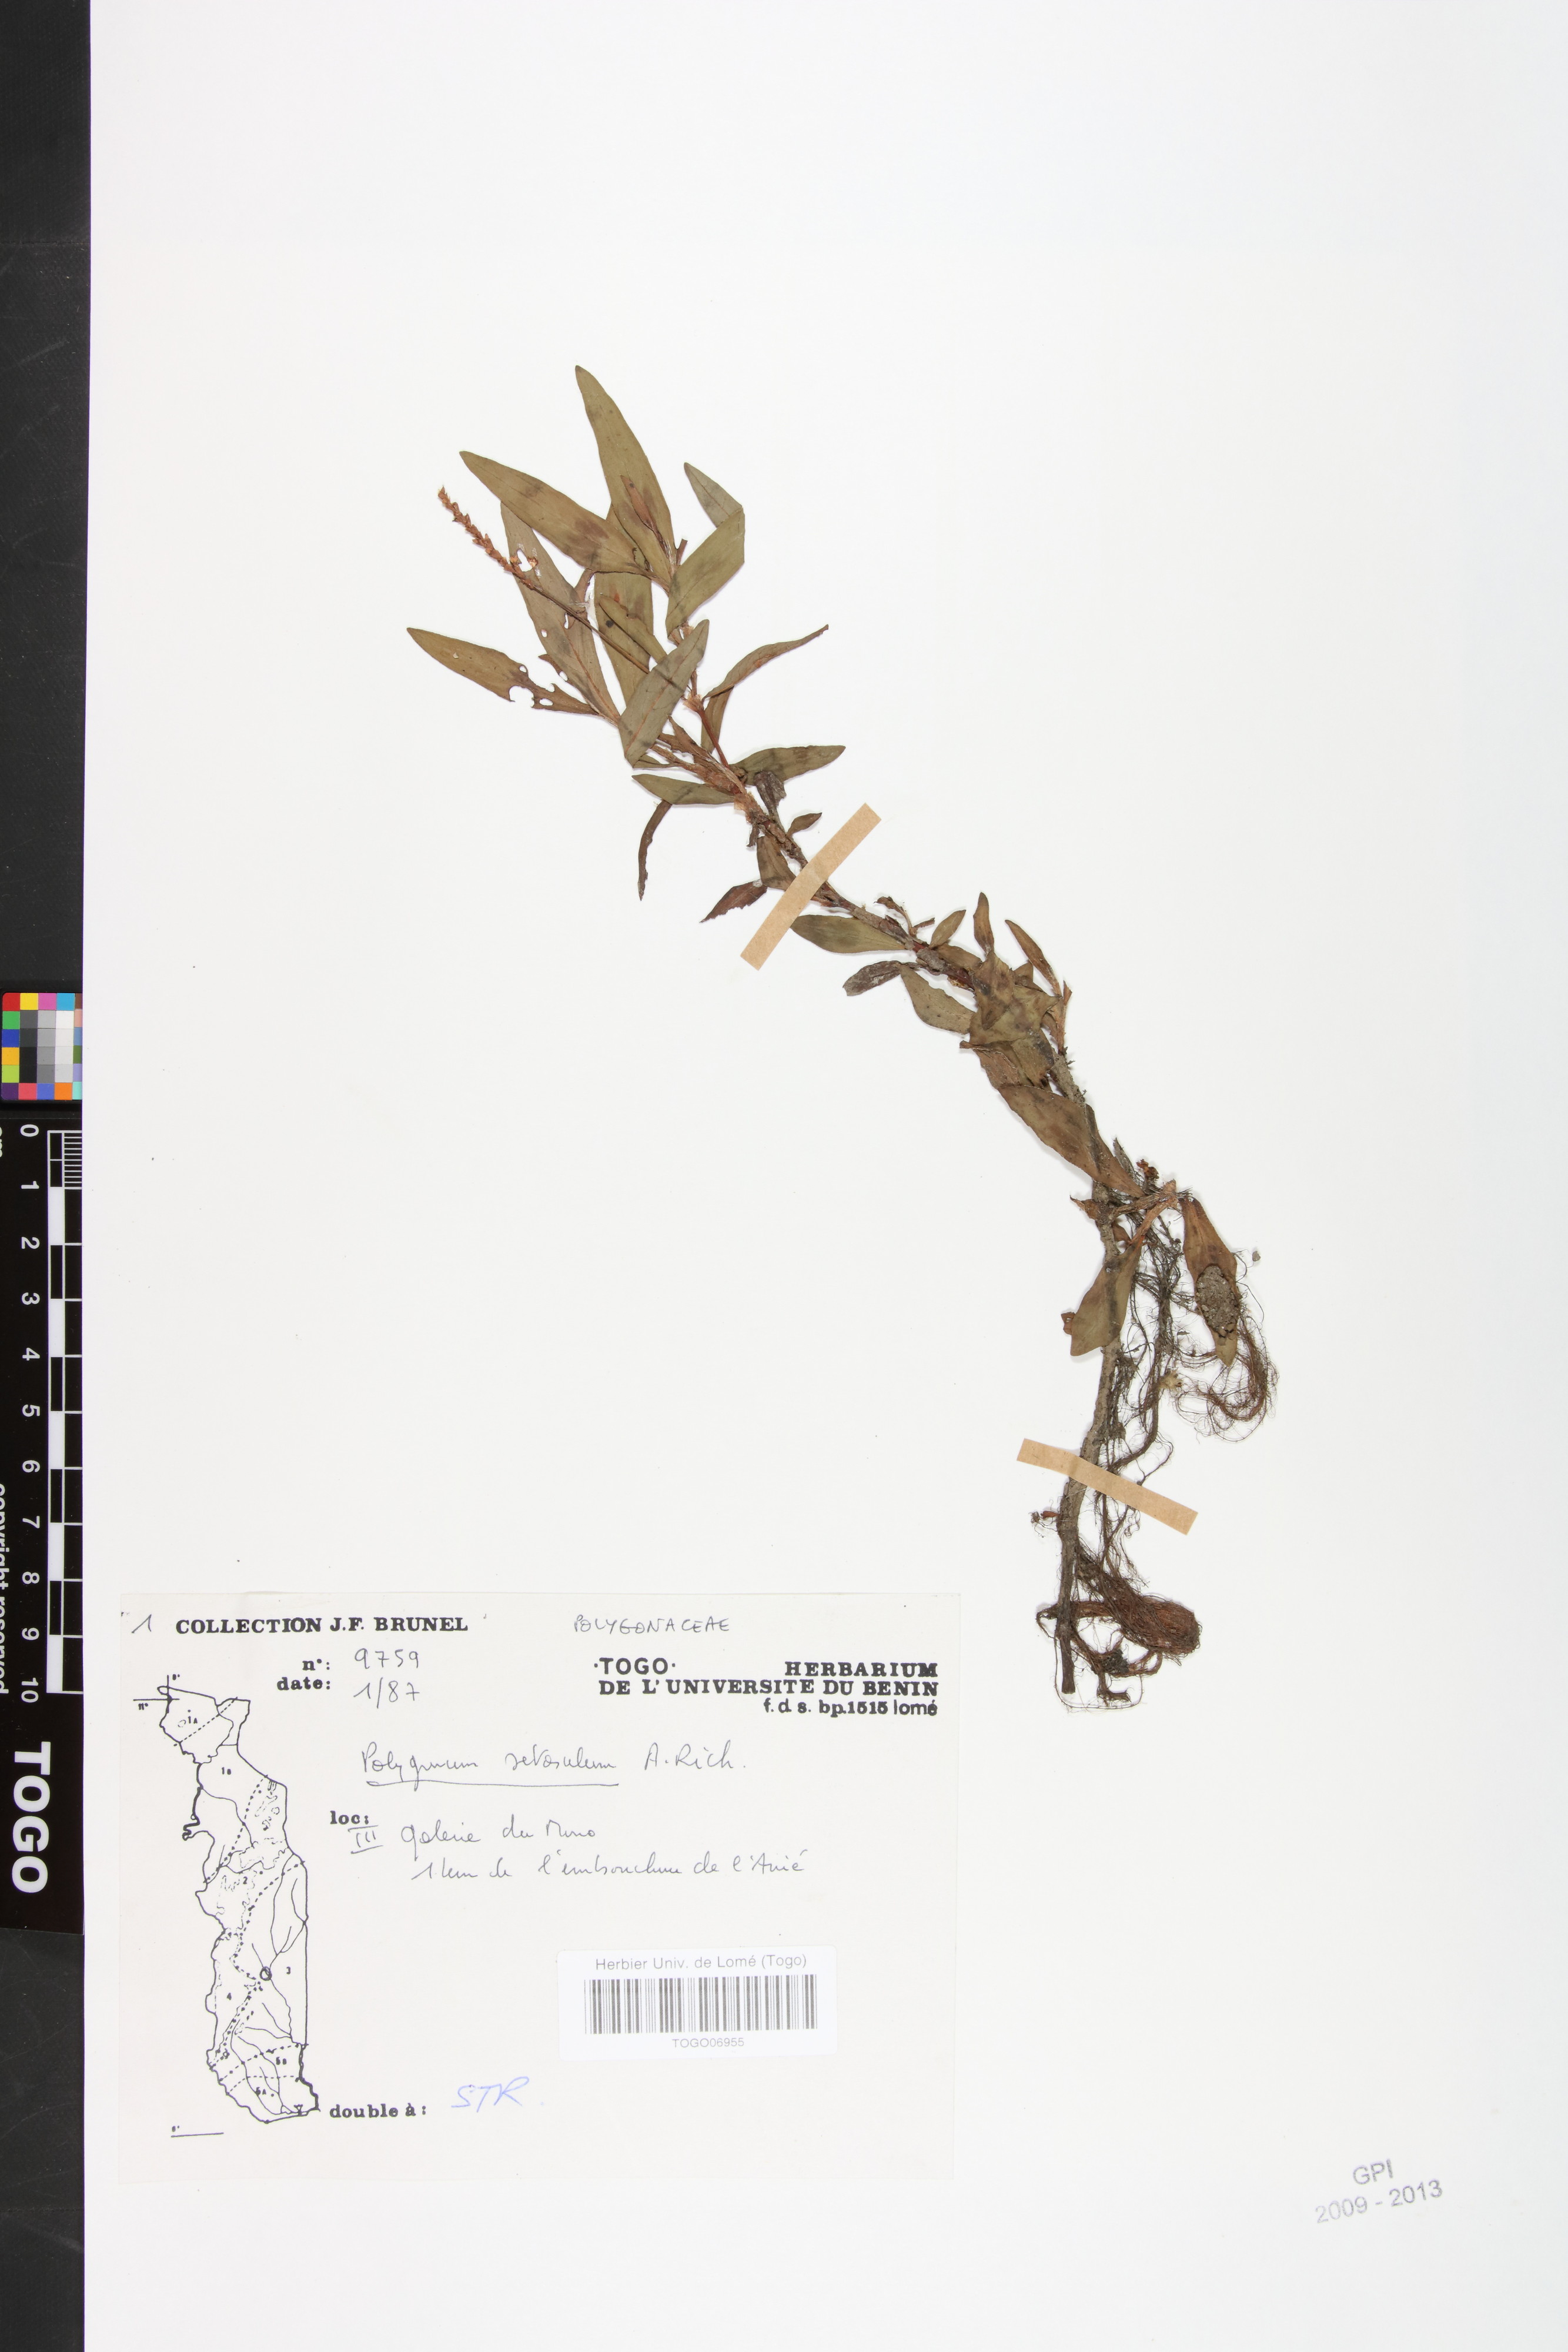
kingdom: Plantae
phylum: Tracheophyta
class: Magnoliopsida
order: Caryophyllales
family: Polygonaceae
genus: Persicaria
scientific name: Persicaria setosula
